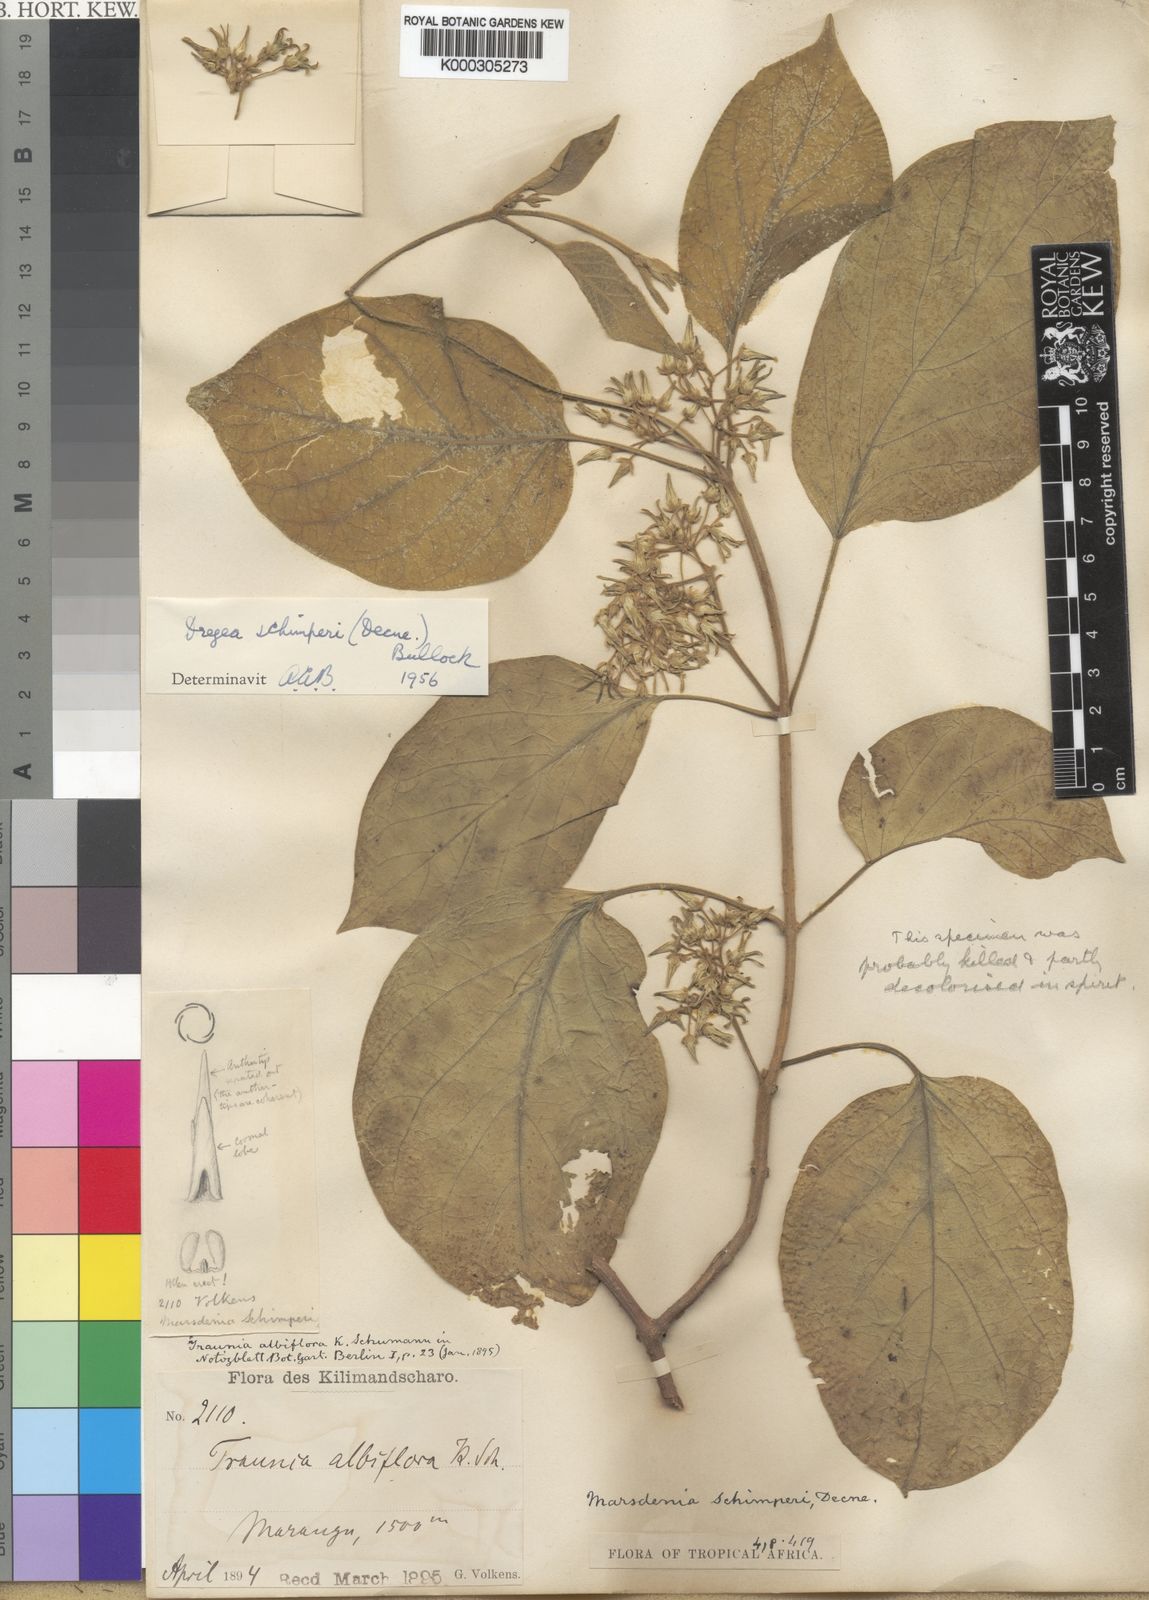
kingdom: Plantae
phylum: Tracheophyta
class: Magnoliopsida
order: Gentianales
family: Apocynaceae
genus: Stephanotis
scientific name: Stephanotis schimperi
